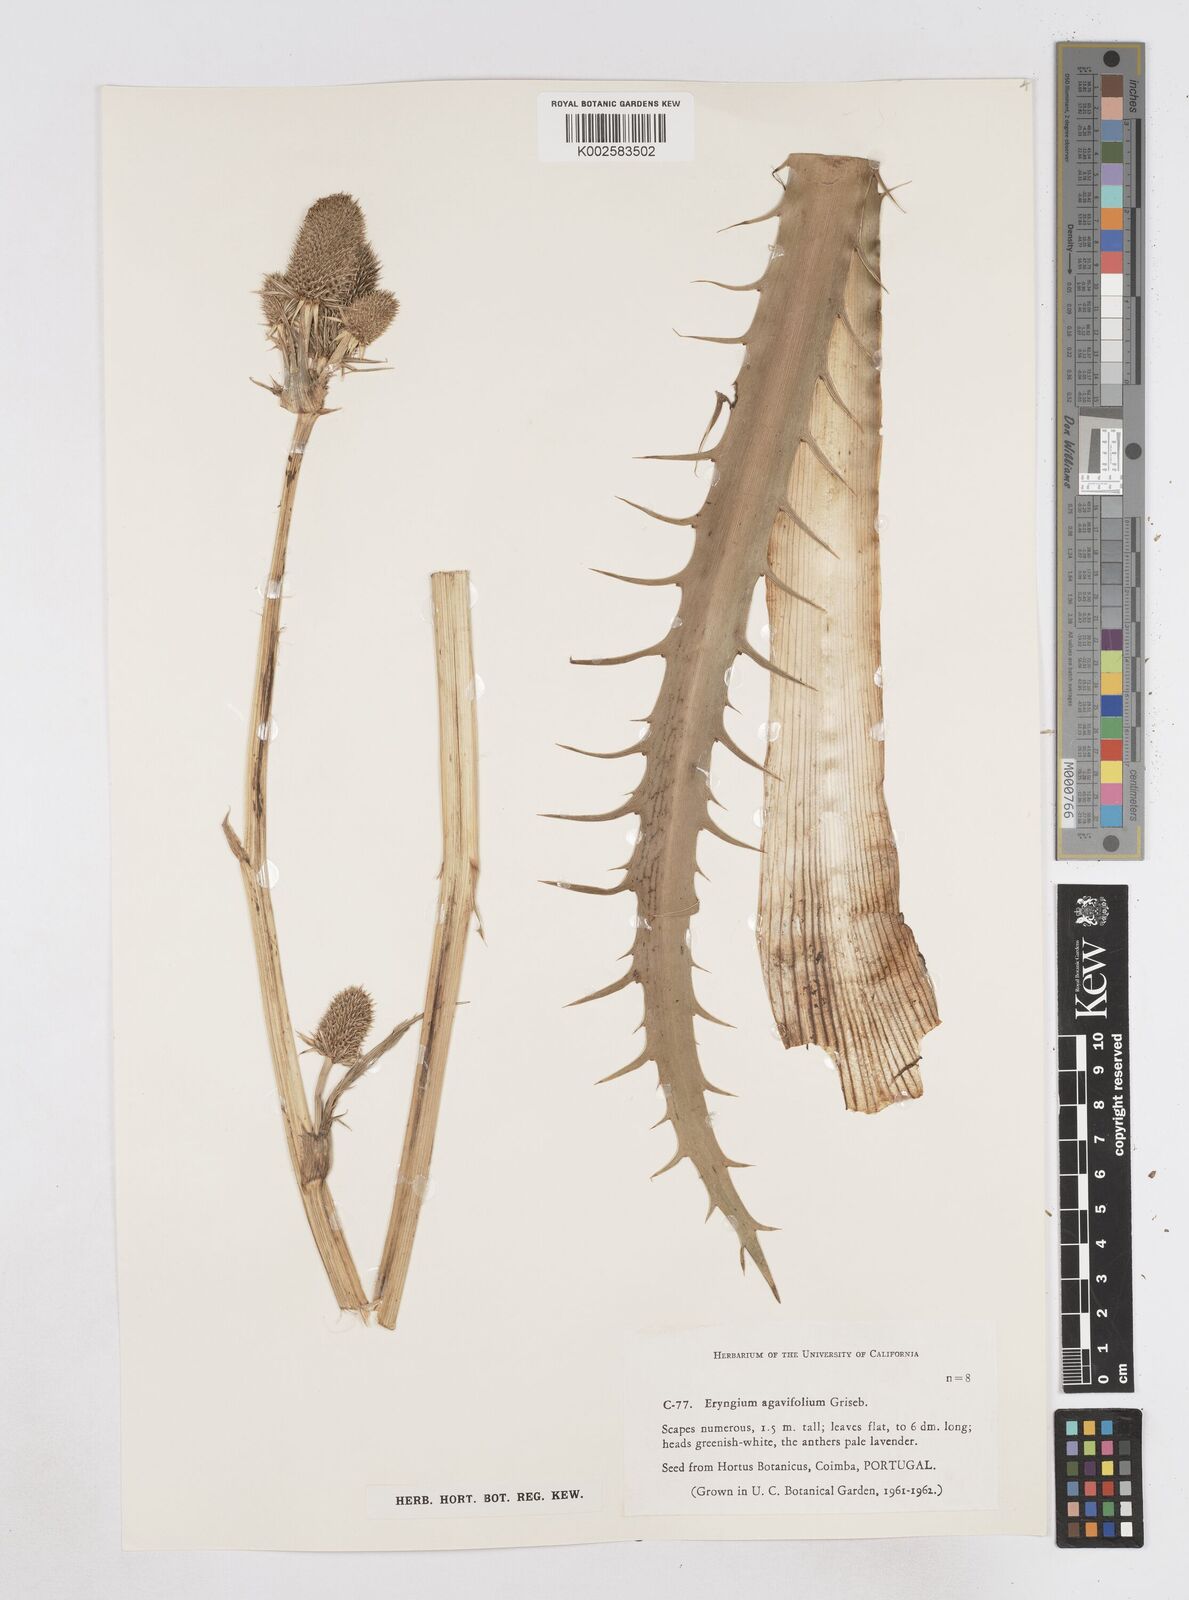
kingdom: Plantae
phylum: Tracheophyta
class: Magnoliopsida
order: Apiales
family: Apiaceae
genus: Eryngium
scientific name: Eryngium agavifolium
